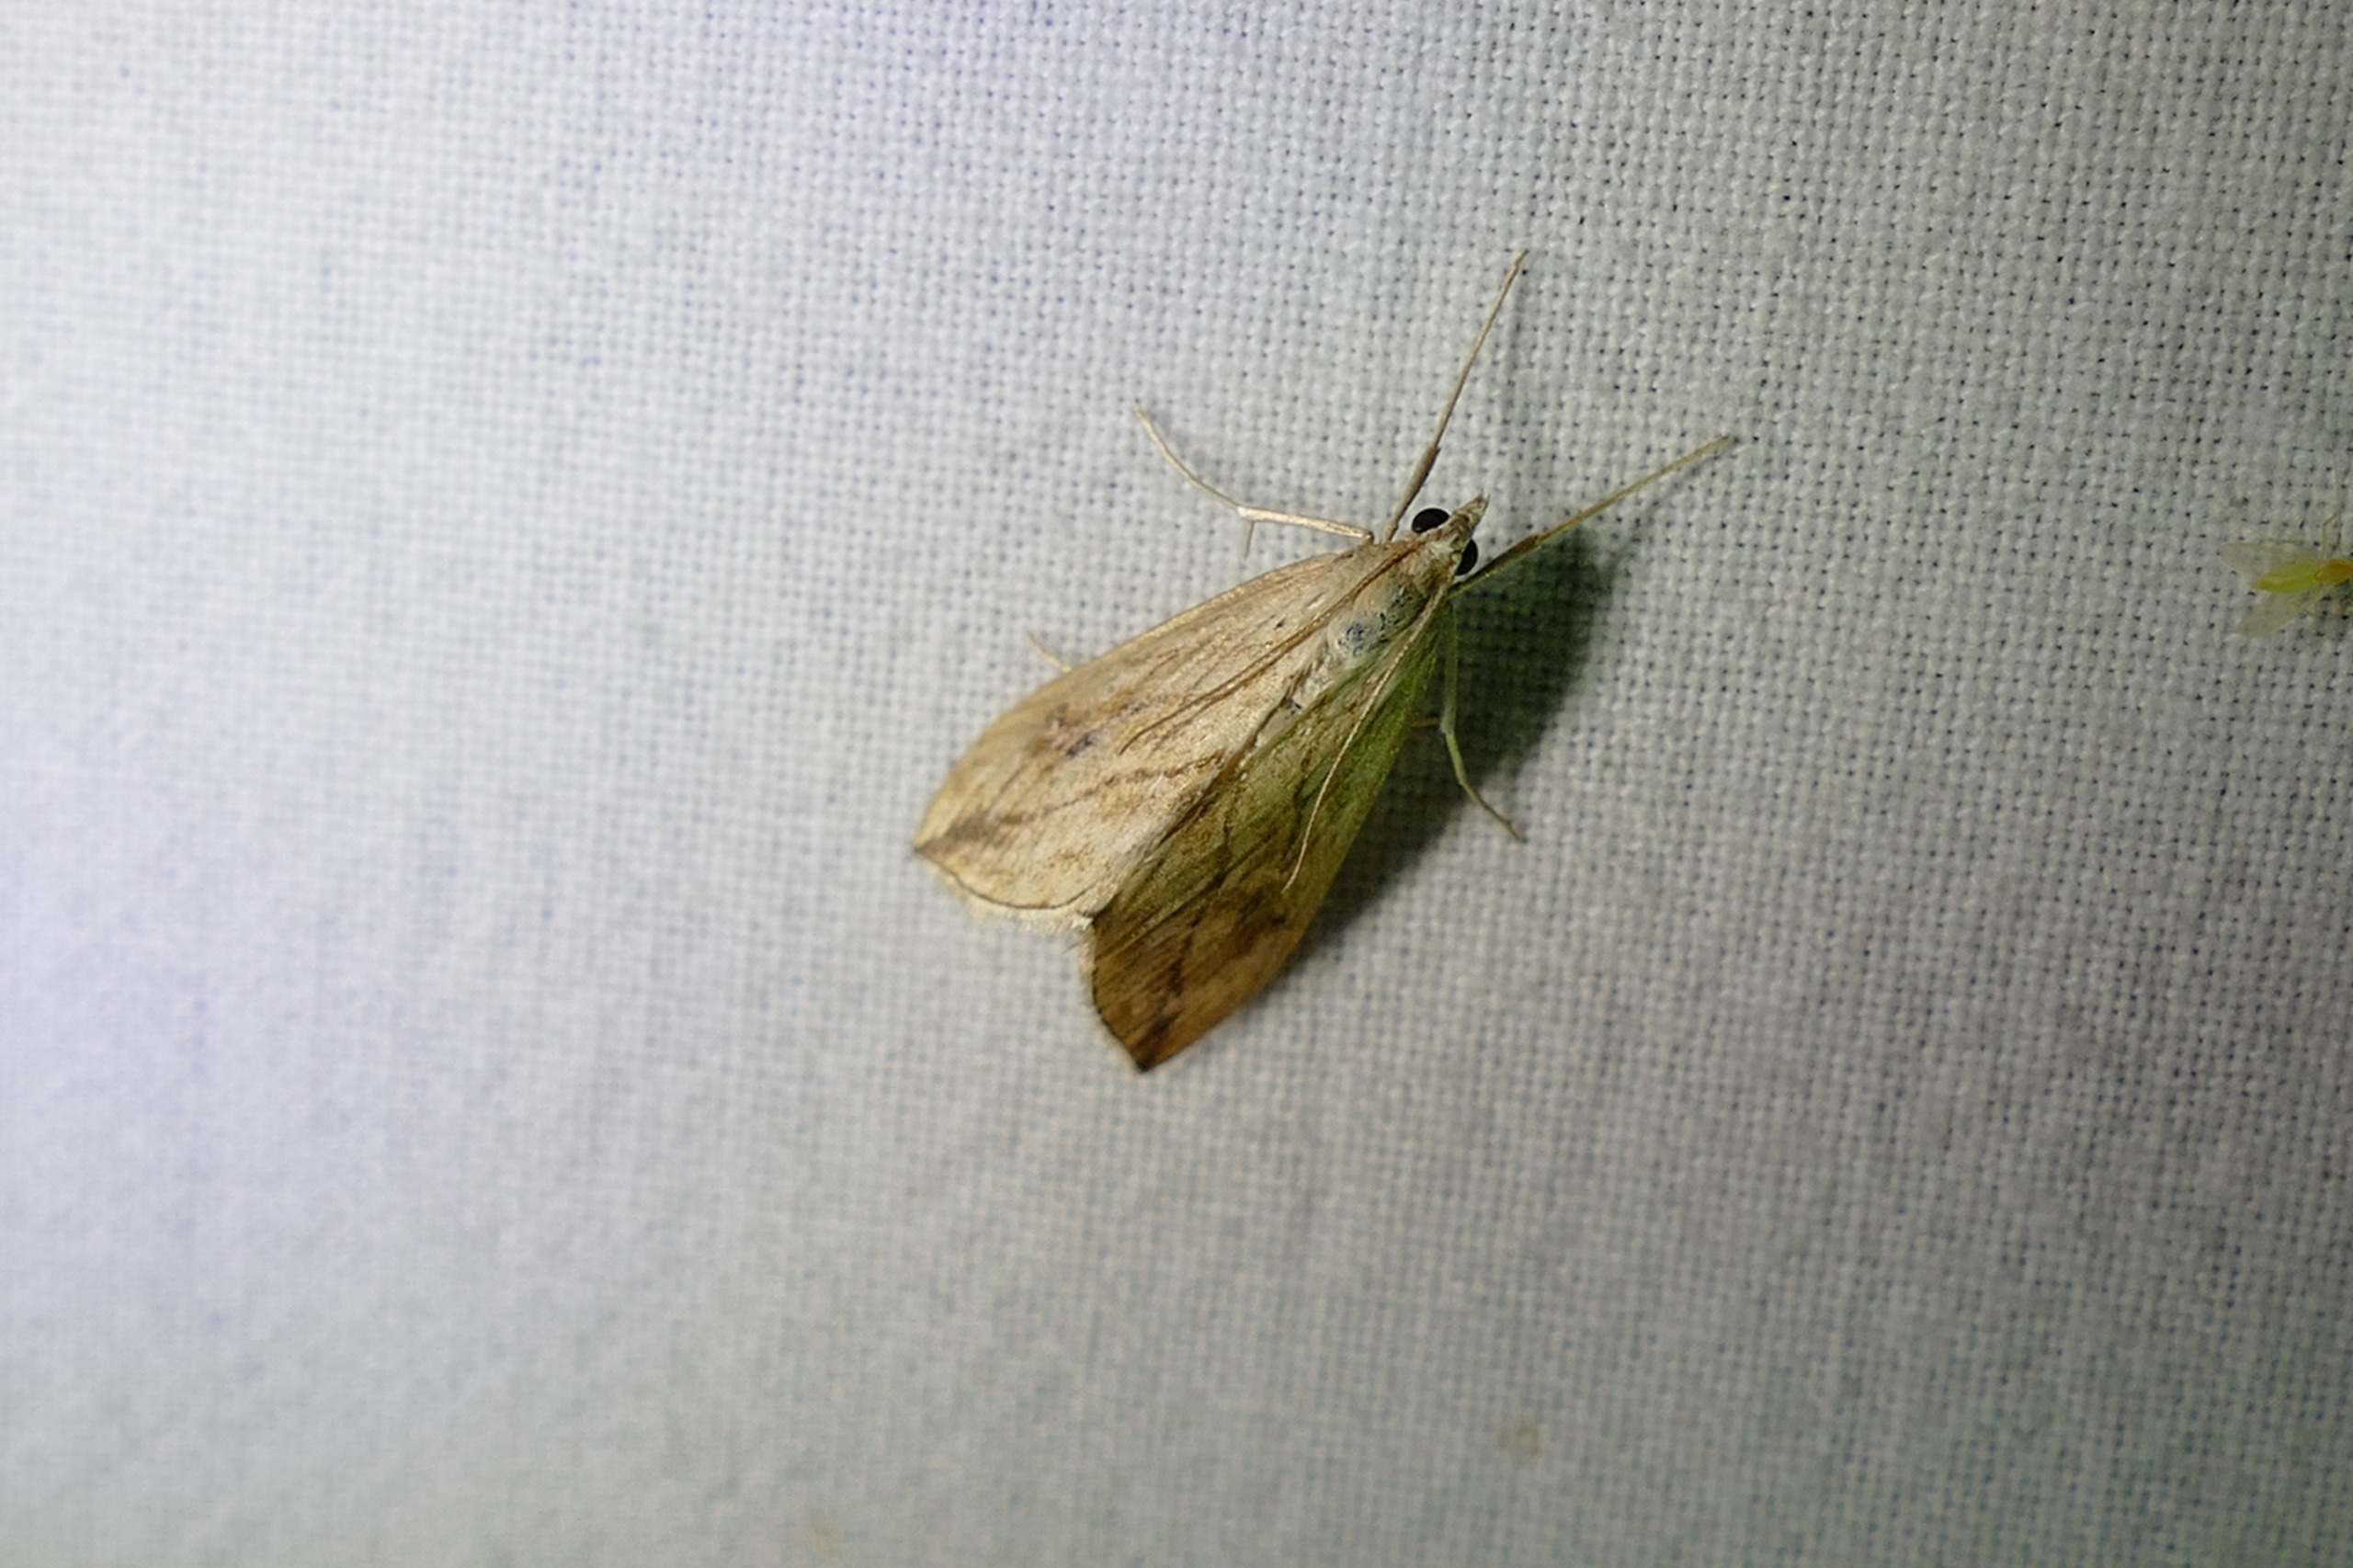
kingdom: Animalia
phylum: Arthropoda
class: Insecta
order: Lepidoptera
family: Crambidae
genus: Evergestis
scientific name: Evergestis forficalis
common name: Kålhalvmøl
